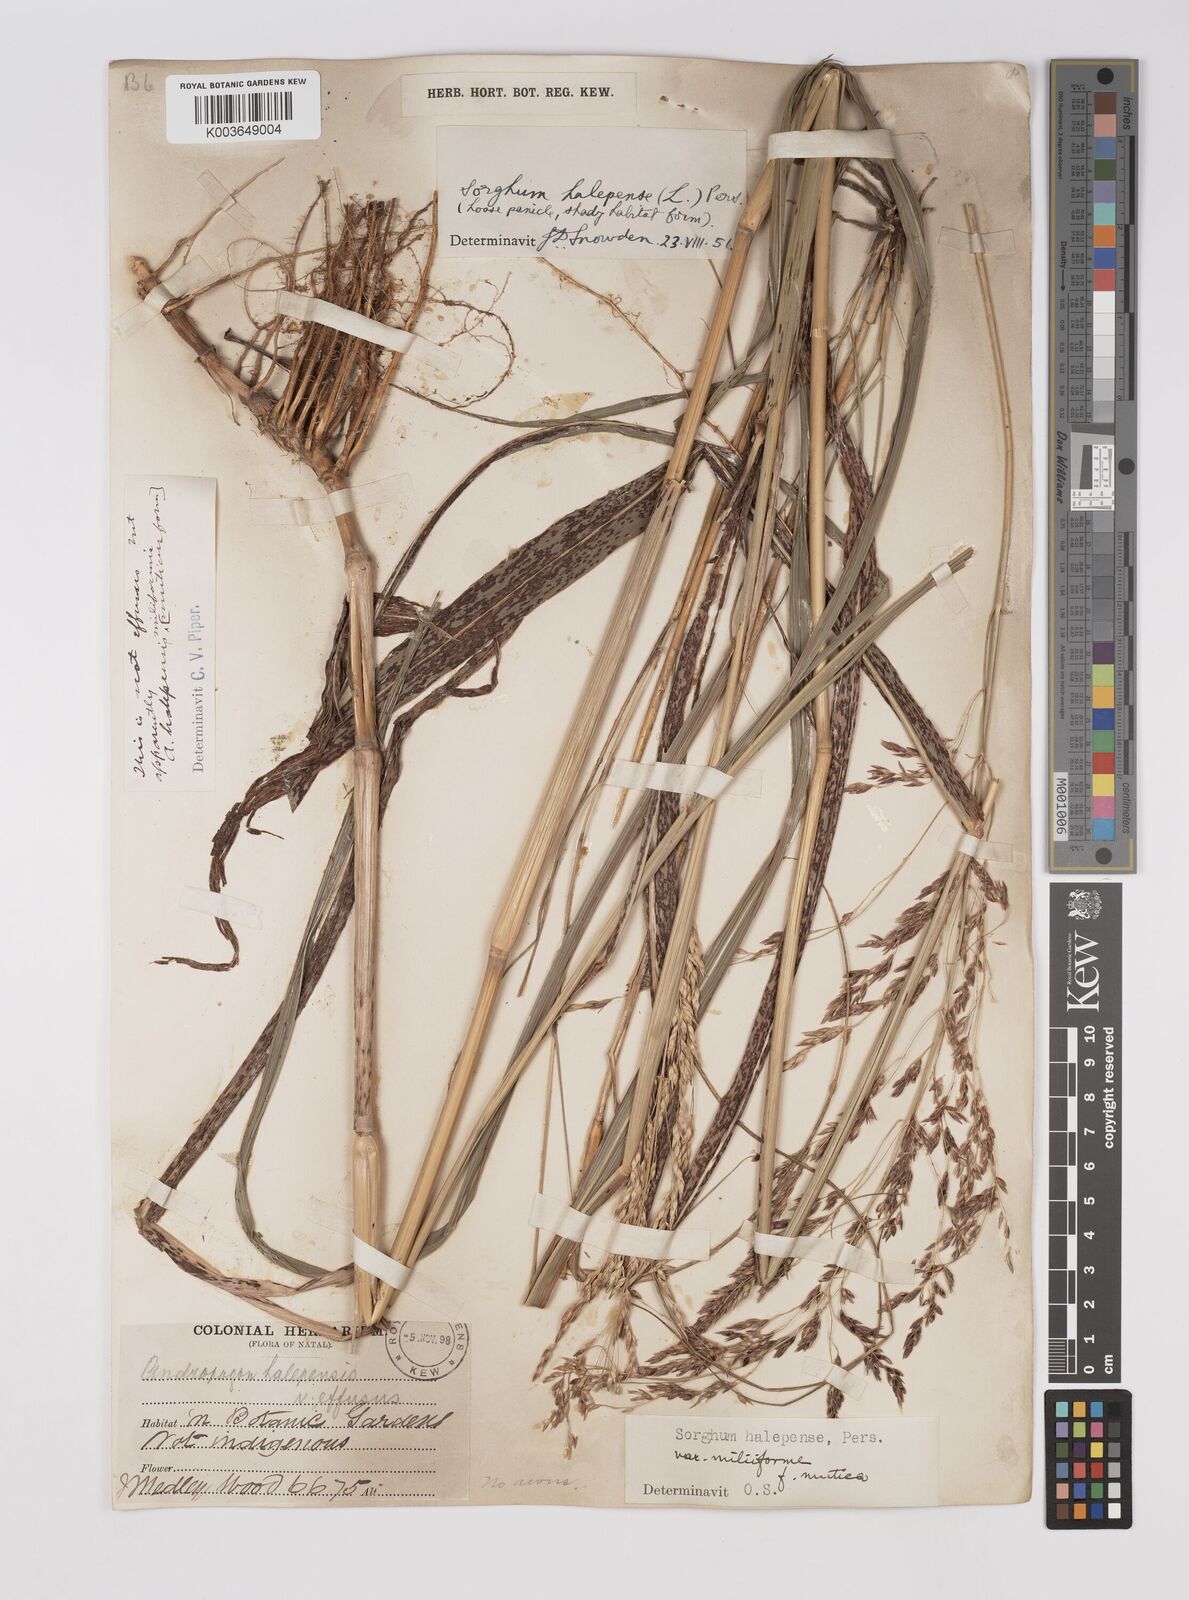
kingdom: Plantae
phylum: Tracheophyta
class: Liliopsida
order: Poales
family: Poaceae
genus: Sorghum
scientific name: Sorghum halepense
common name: Johnson-grass
